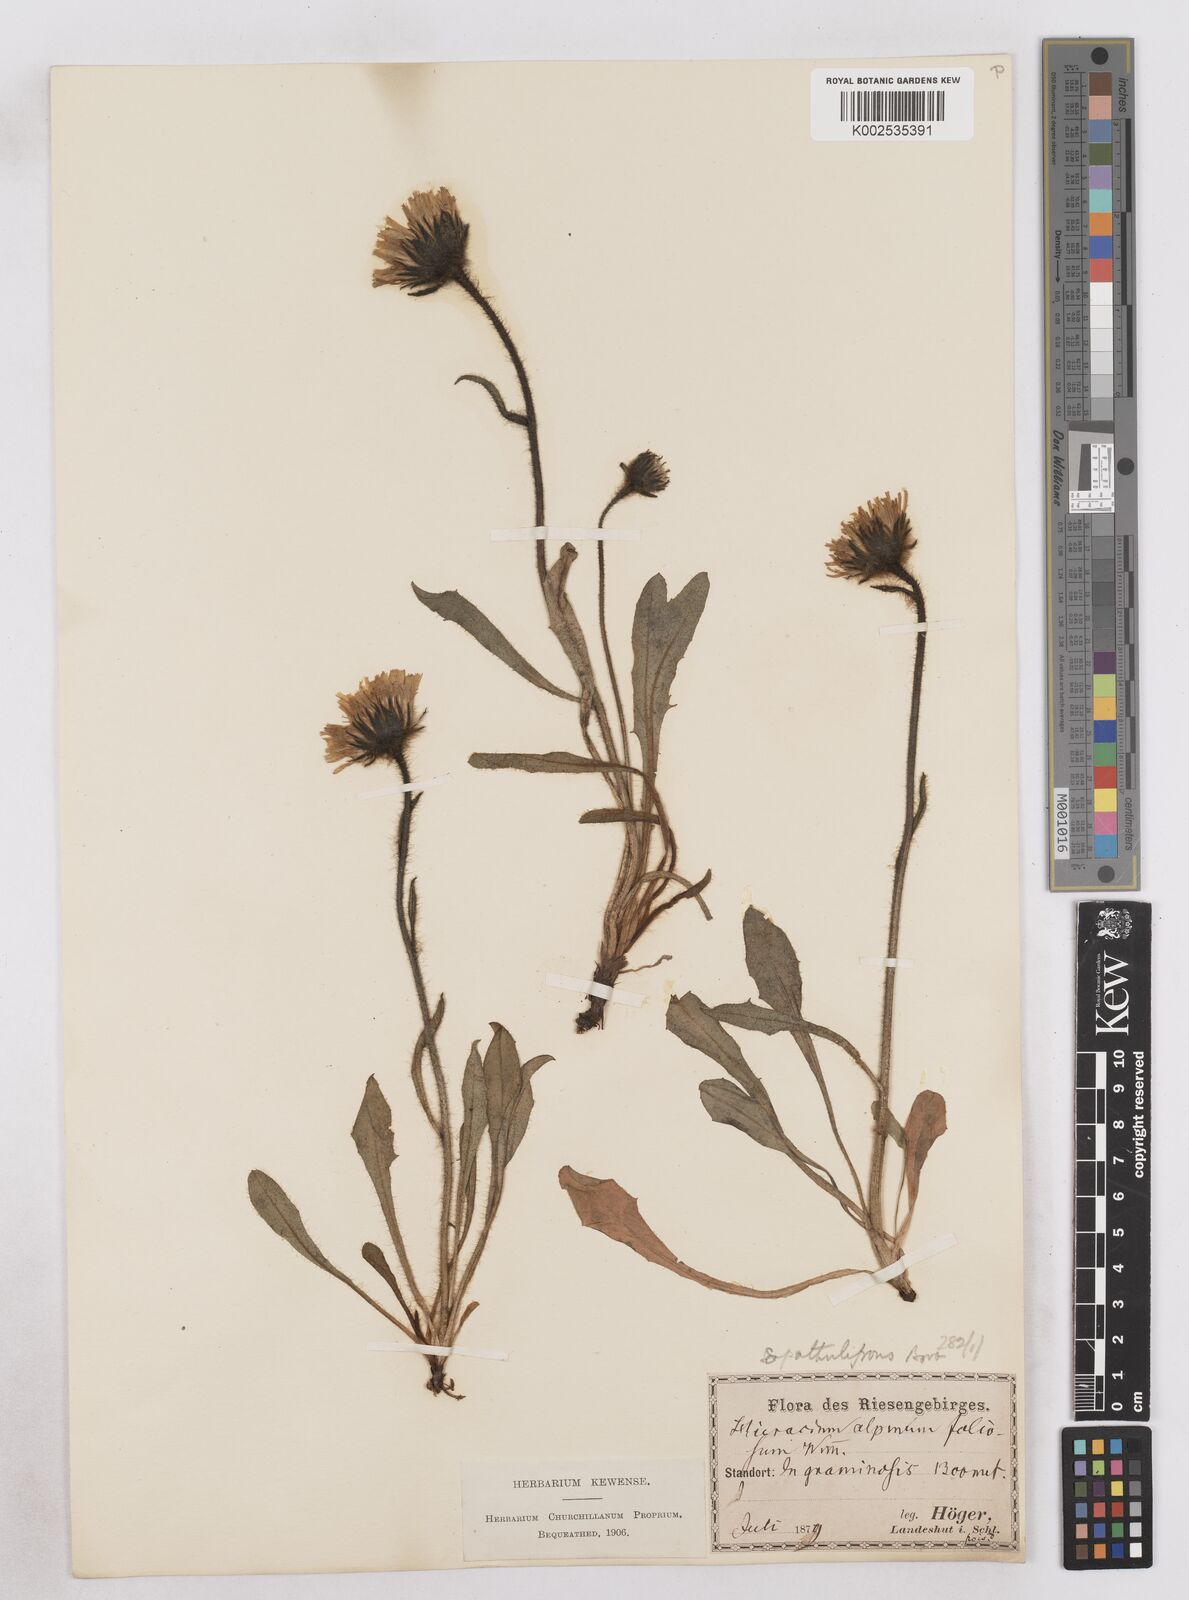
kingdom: Plantae
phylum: Tracheophyta
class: Magnoliopsida
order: Asterales
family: Asteraceae
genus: Hieracium
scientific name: Hieracium fritzei
